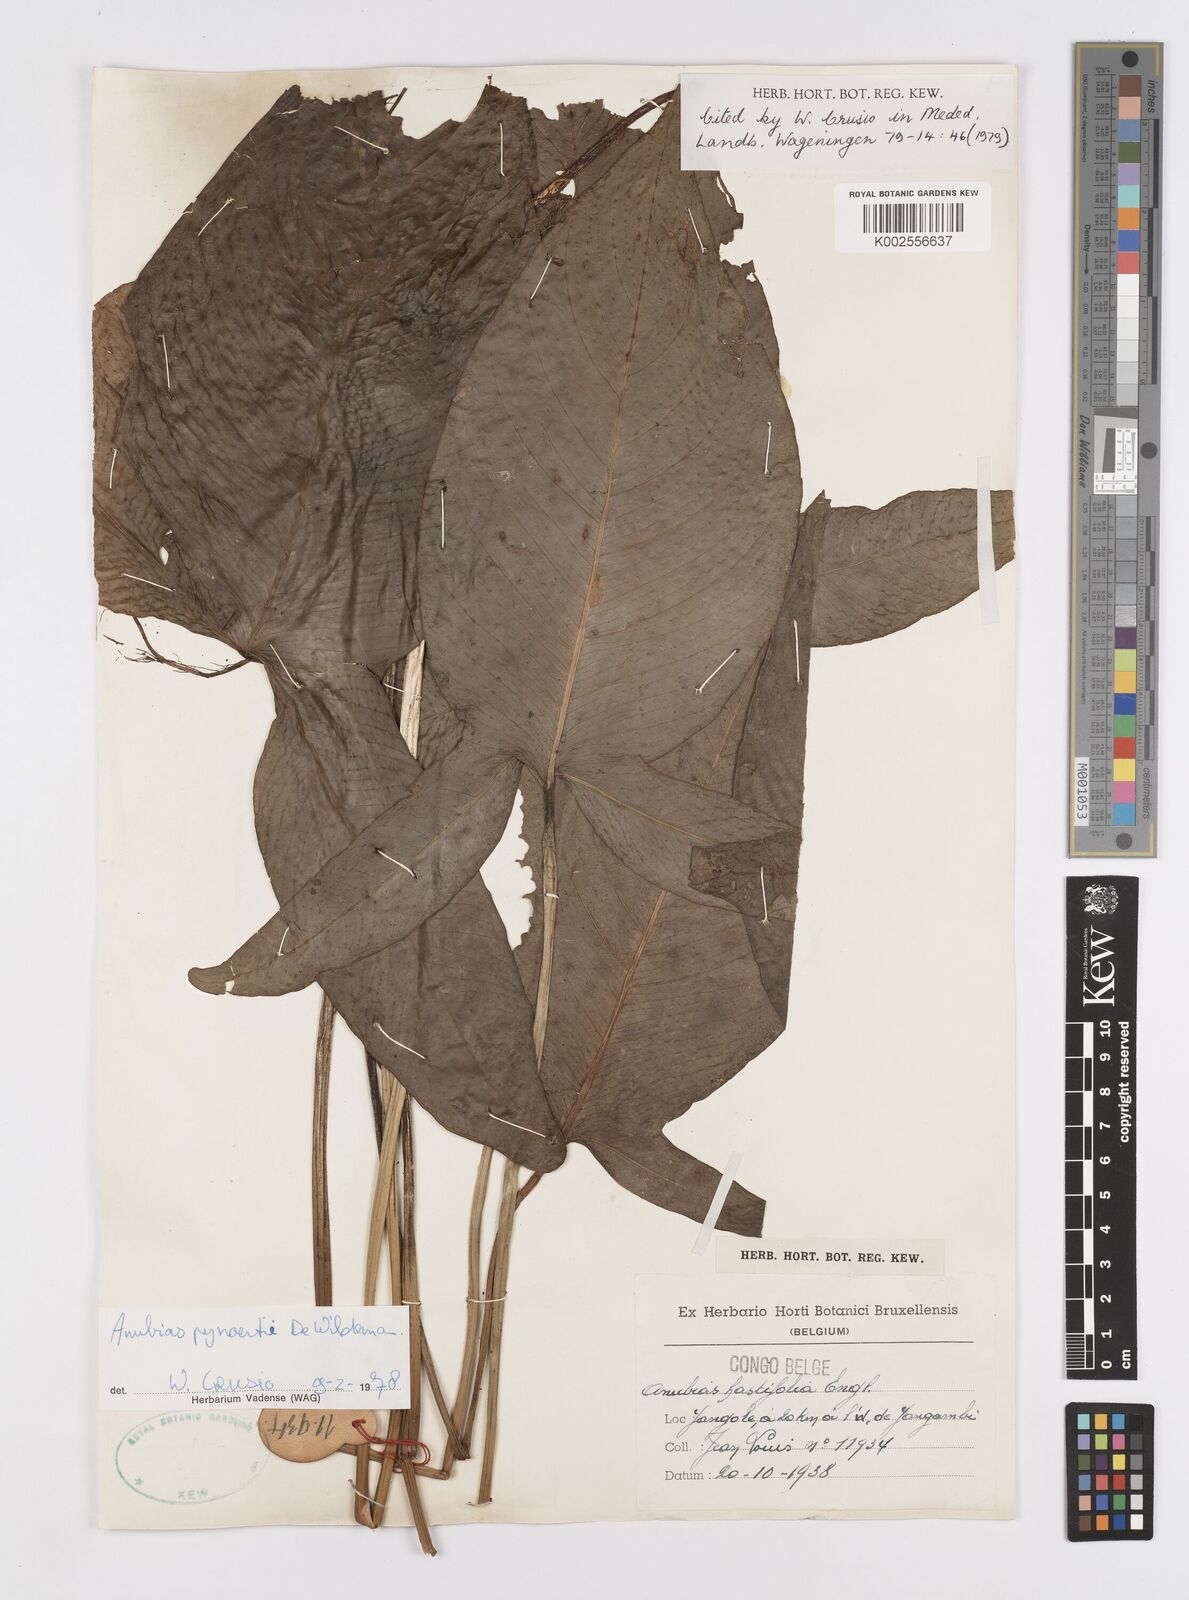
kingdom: Plantae
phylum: Tracheophyta
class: Liliopsida
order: Alismatales
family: Araceae
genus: Anubias
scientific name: Anubias pynaertii
